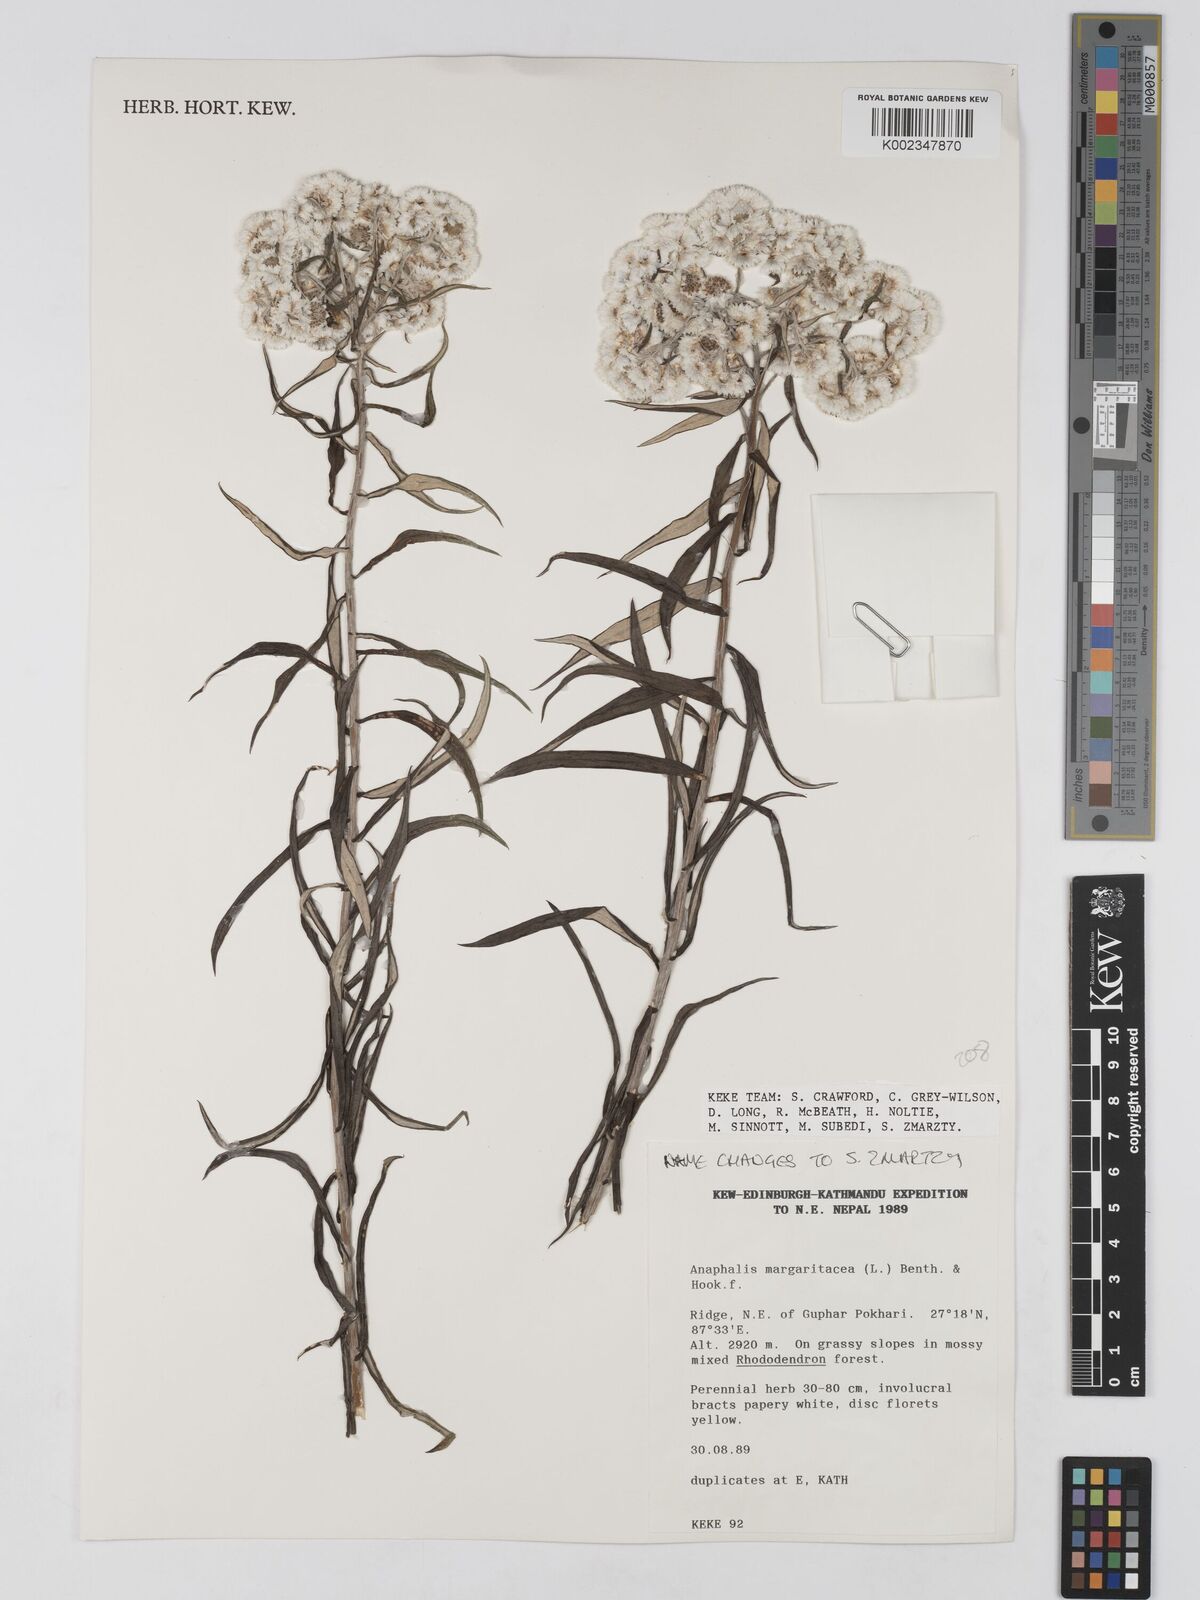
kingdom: Plantae
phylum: Tracheophyta
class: Magnoliopsida
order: Asterales
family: Asteraceae
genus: Anaphalis
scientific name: Anaphalis margaritacea
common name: Pearly everlasting
